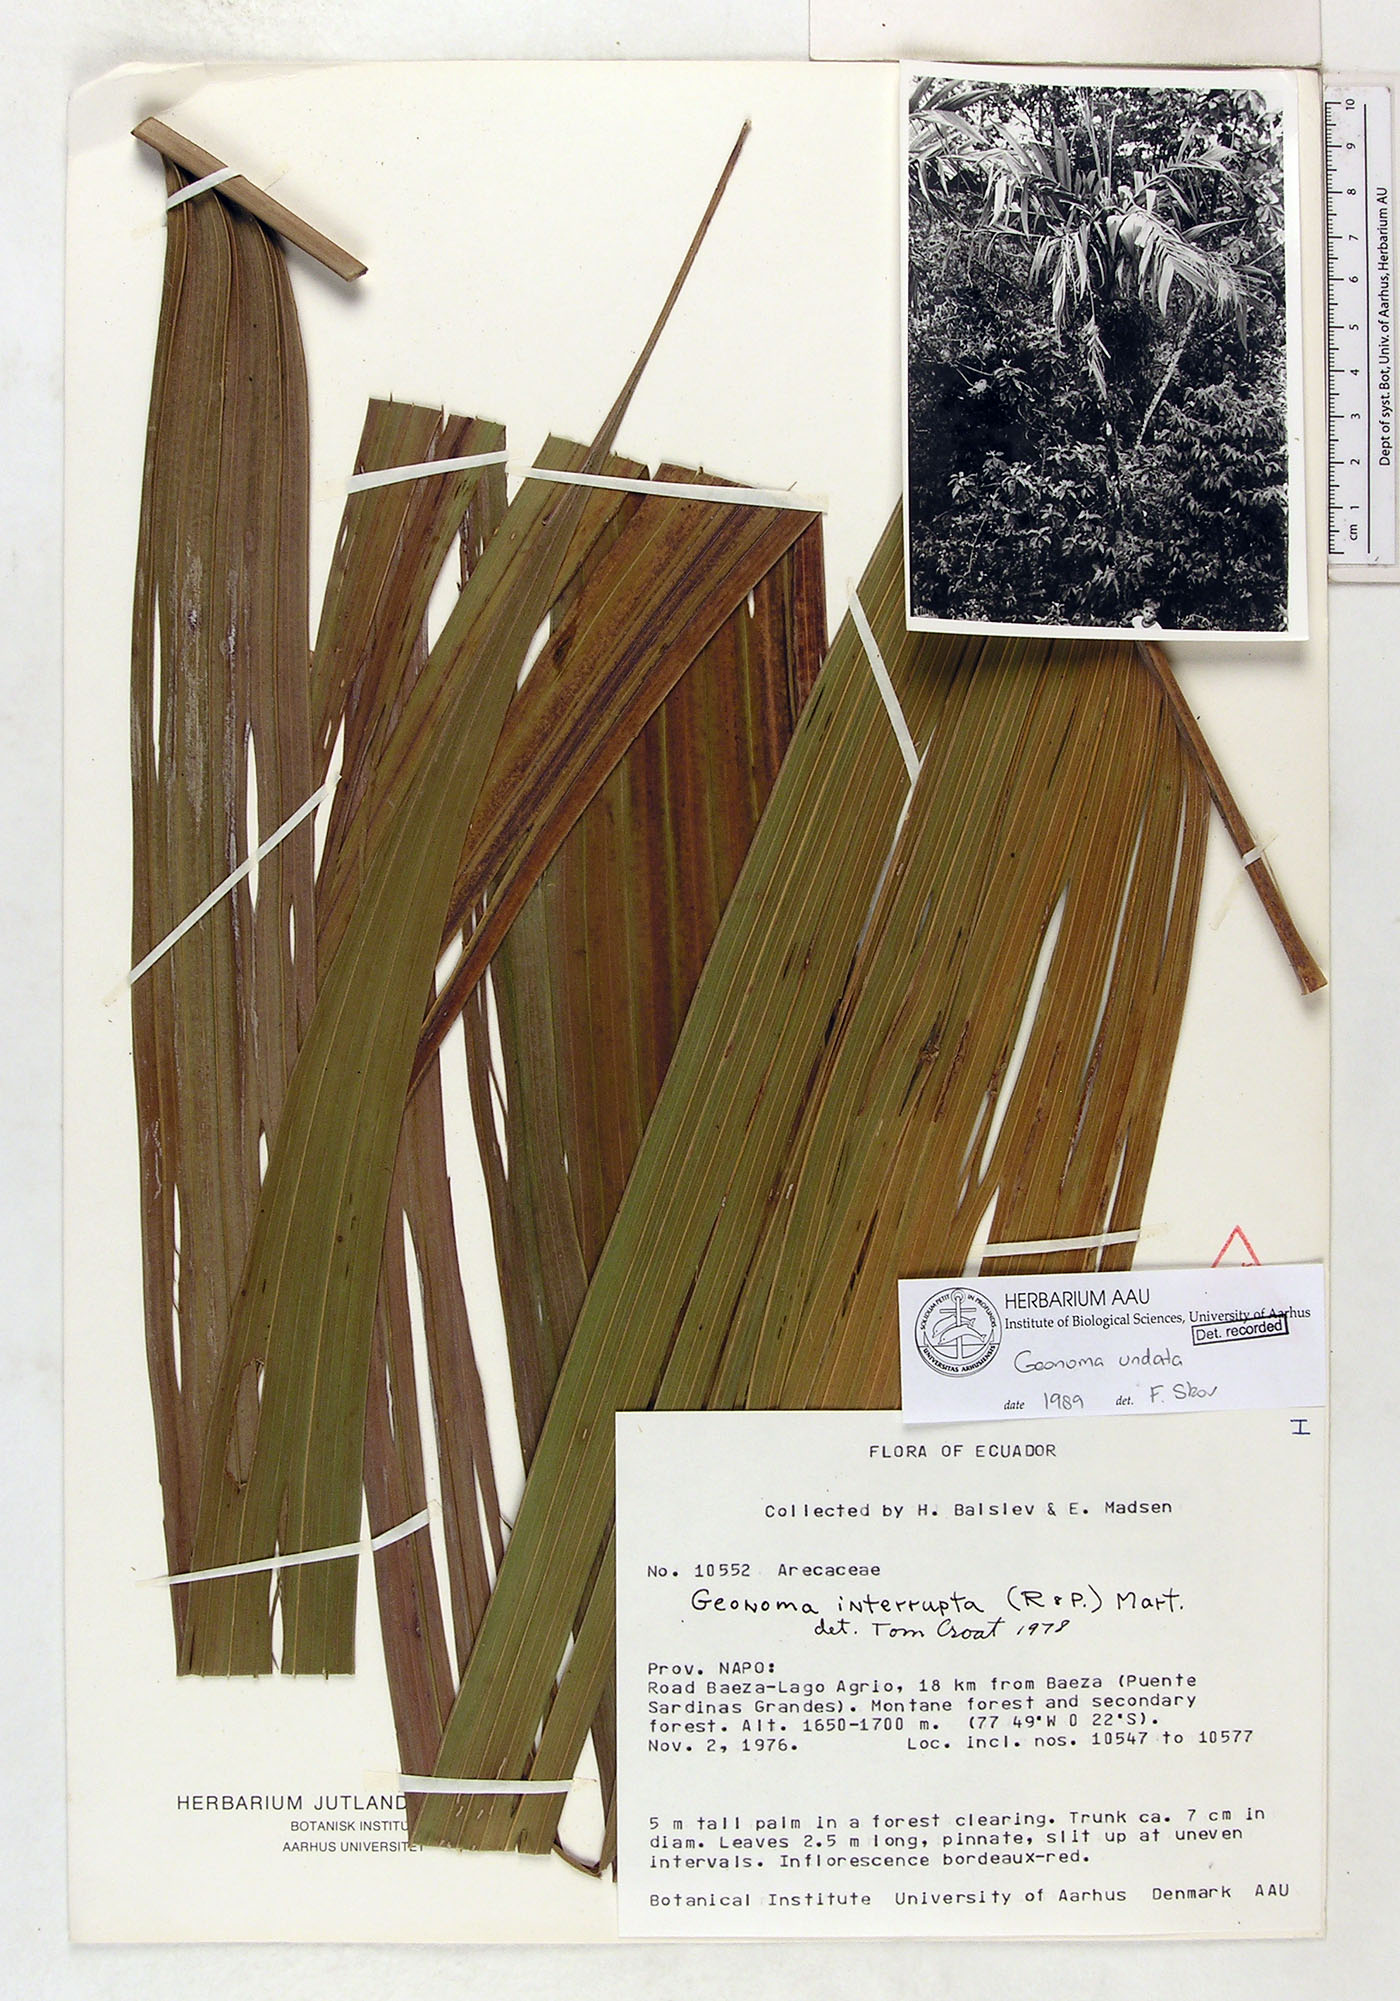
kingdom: Plantae
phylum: Tracheophyta
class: Liliopsida
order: Arecales
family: Arecaceae
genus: Geonoma
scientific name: Geonoma undata
